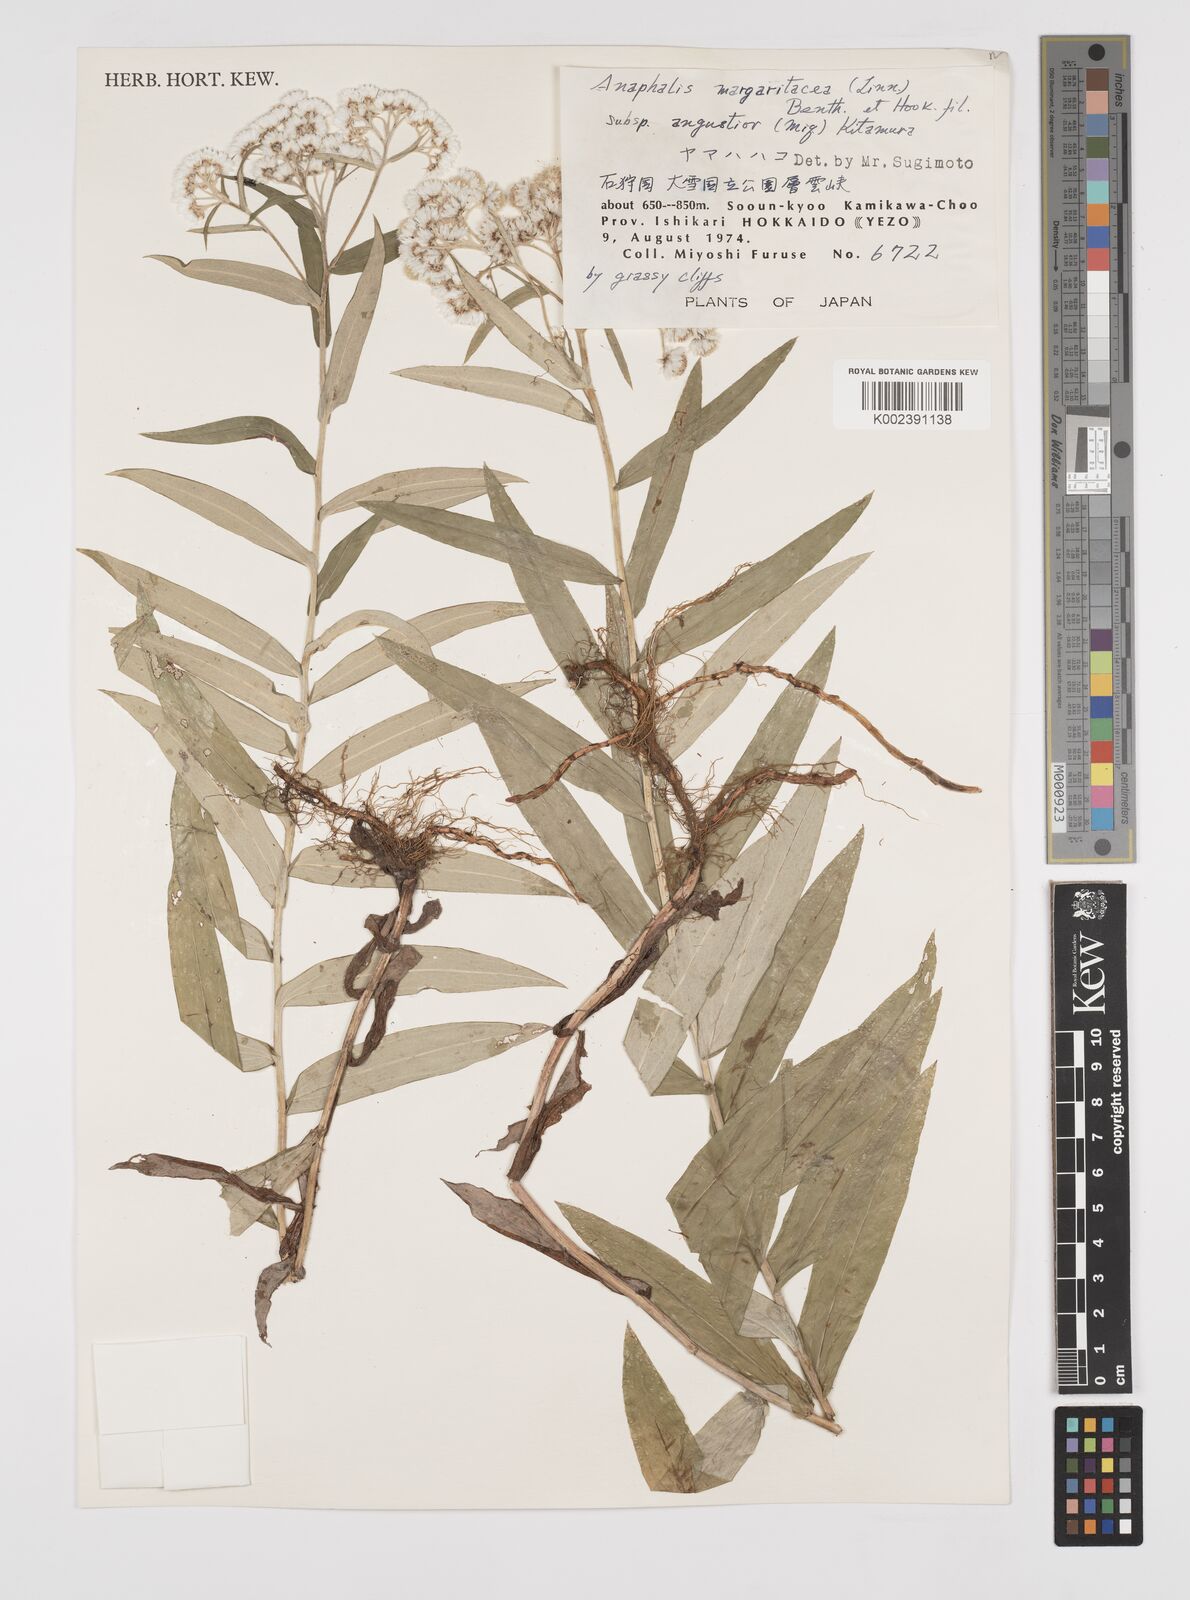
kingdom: Plantae
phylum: Tracheophyta
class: Magnoliopsida
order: Asterales
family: Asteraceae
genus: Anaphalis
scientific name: Anaphalis margaritacea
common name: Pearly everlasting
